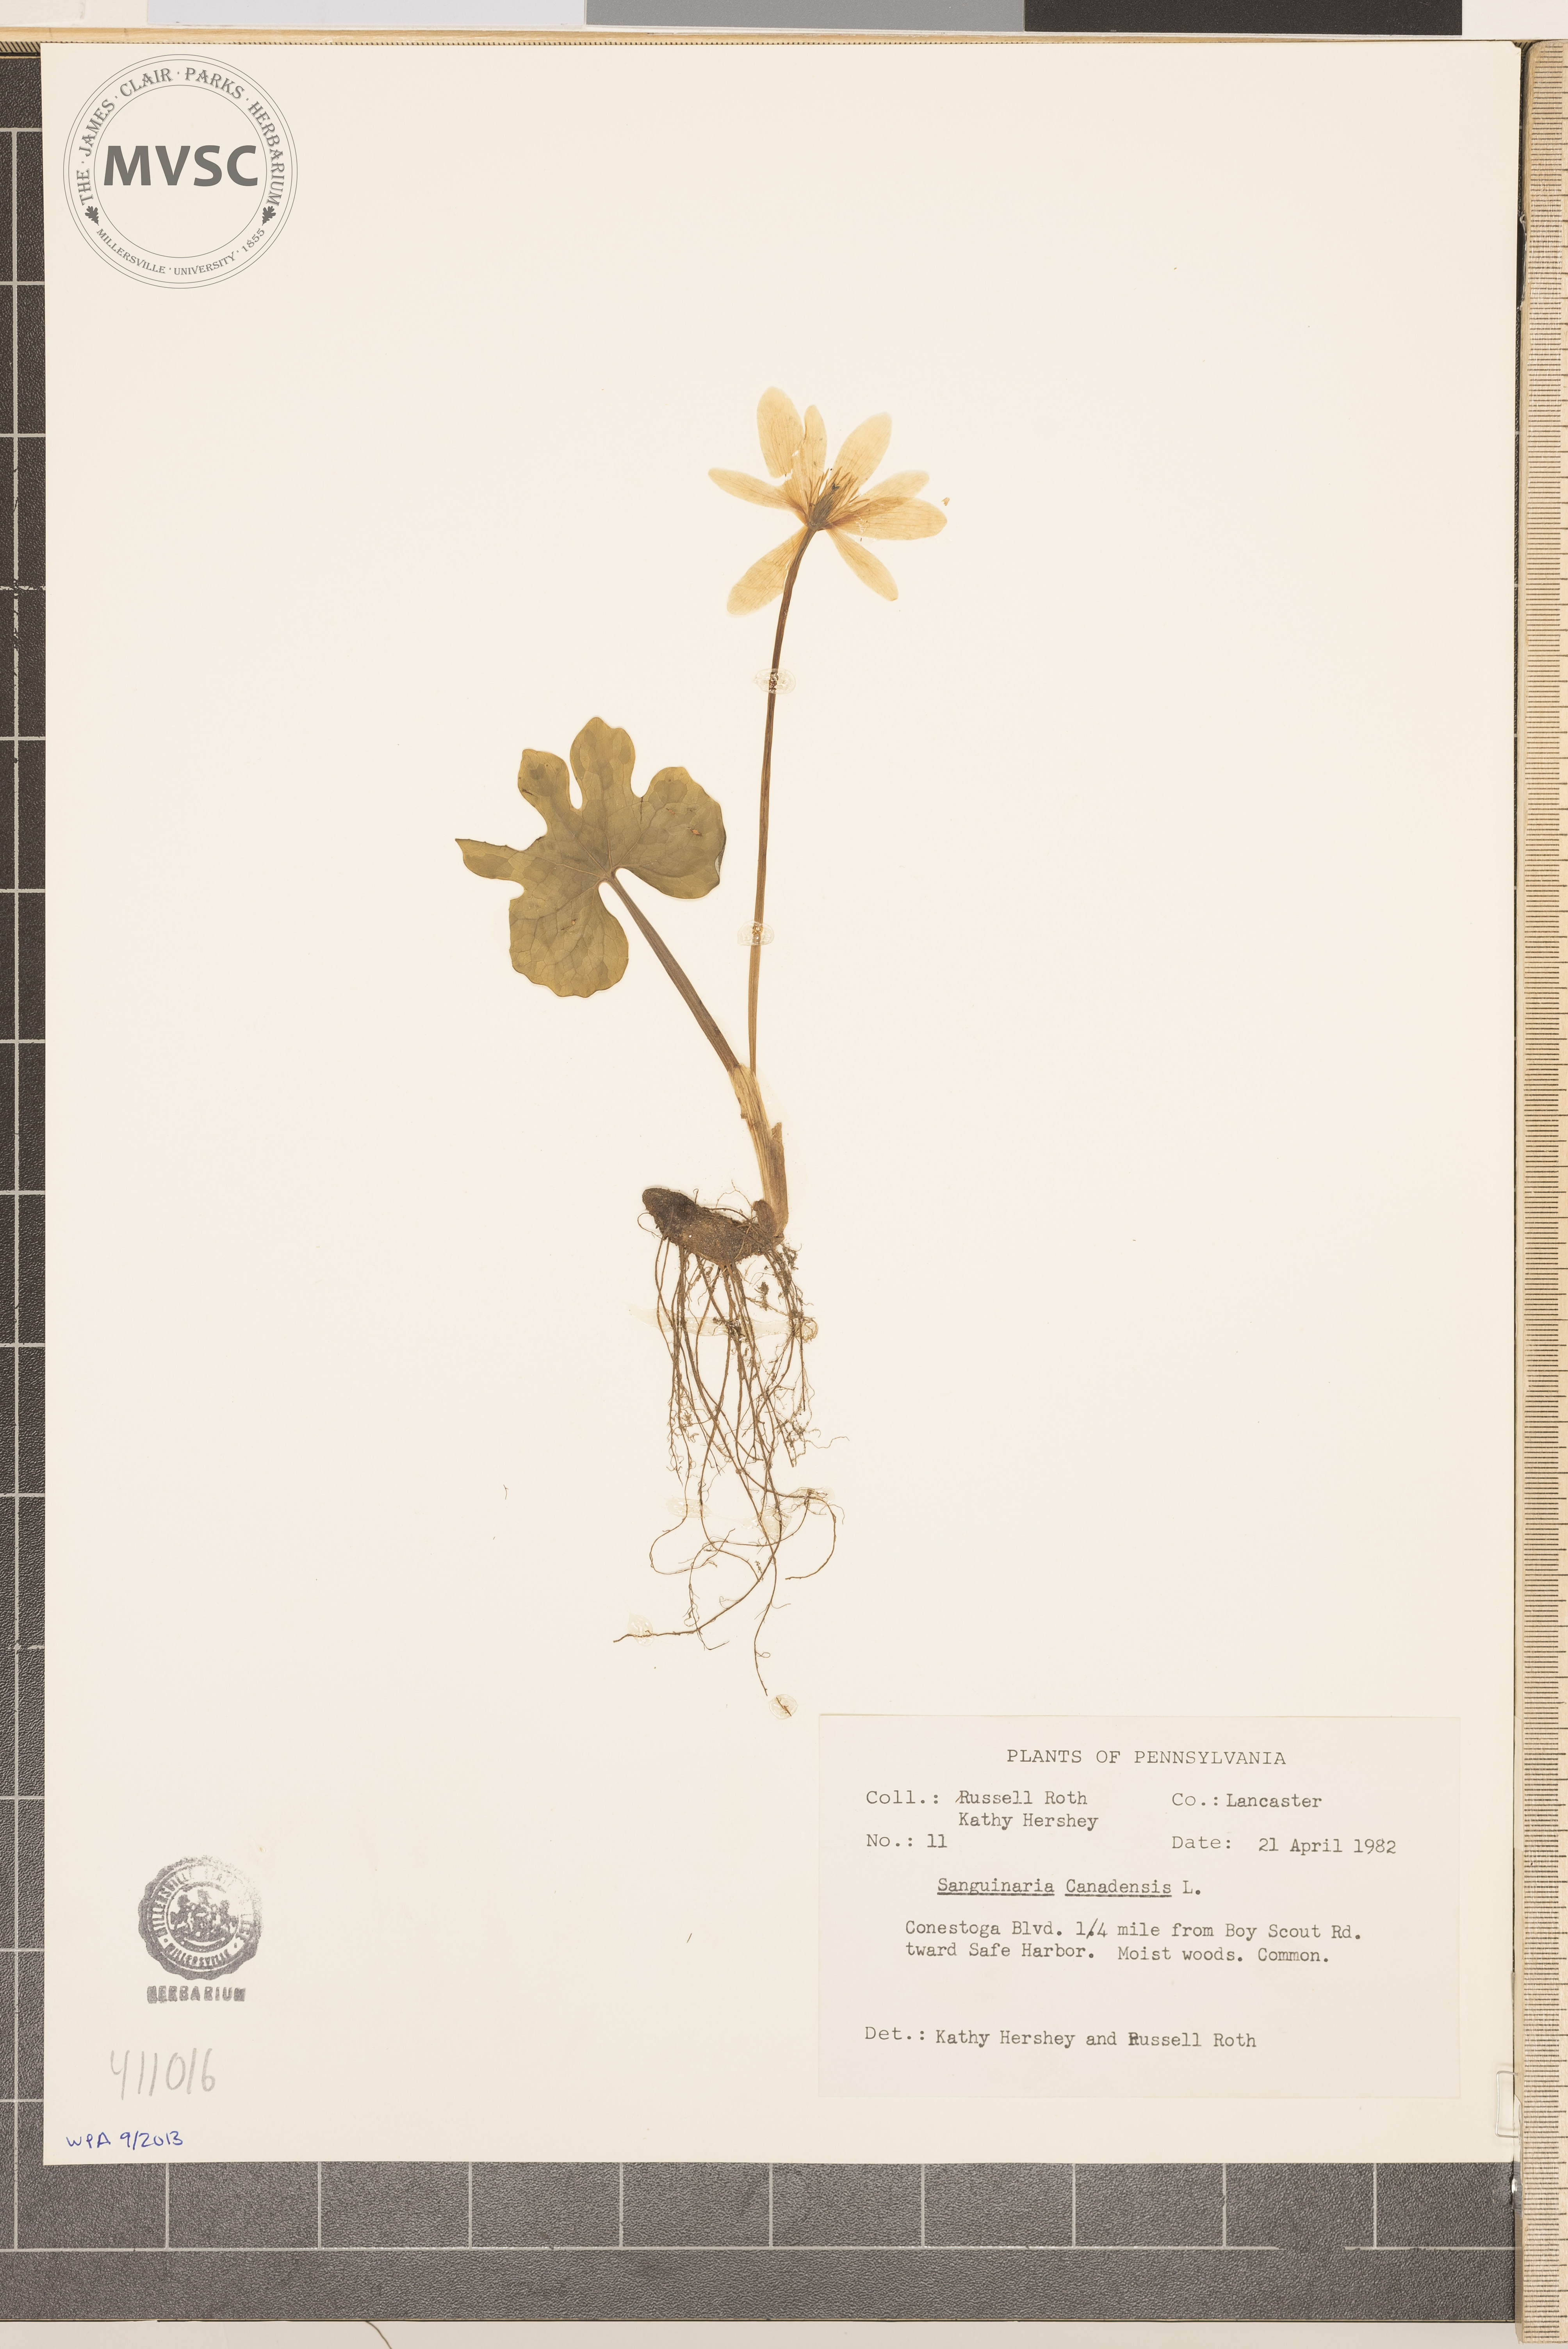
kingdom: Plantae
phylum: Tracheophyta
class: Magnoliopsida
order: Ranunculales
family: Papaveraceae
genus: Sanguinaria
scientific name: Sanguinaria canadensis
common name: Bloodroot
